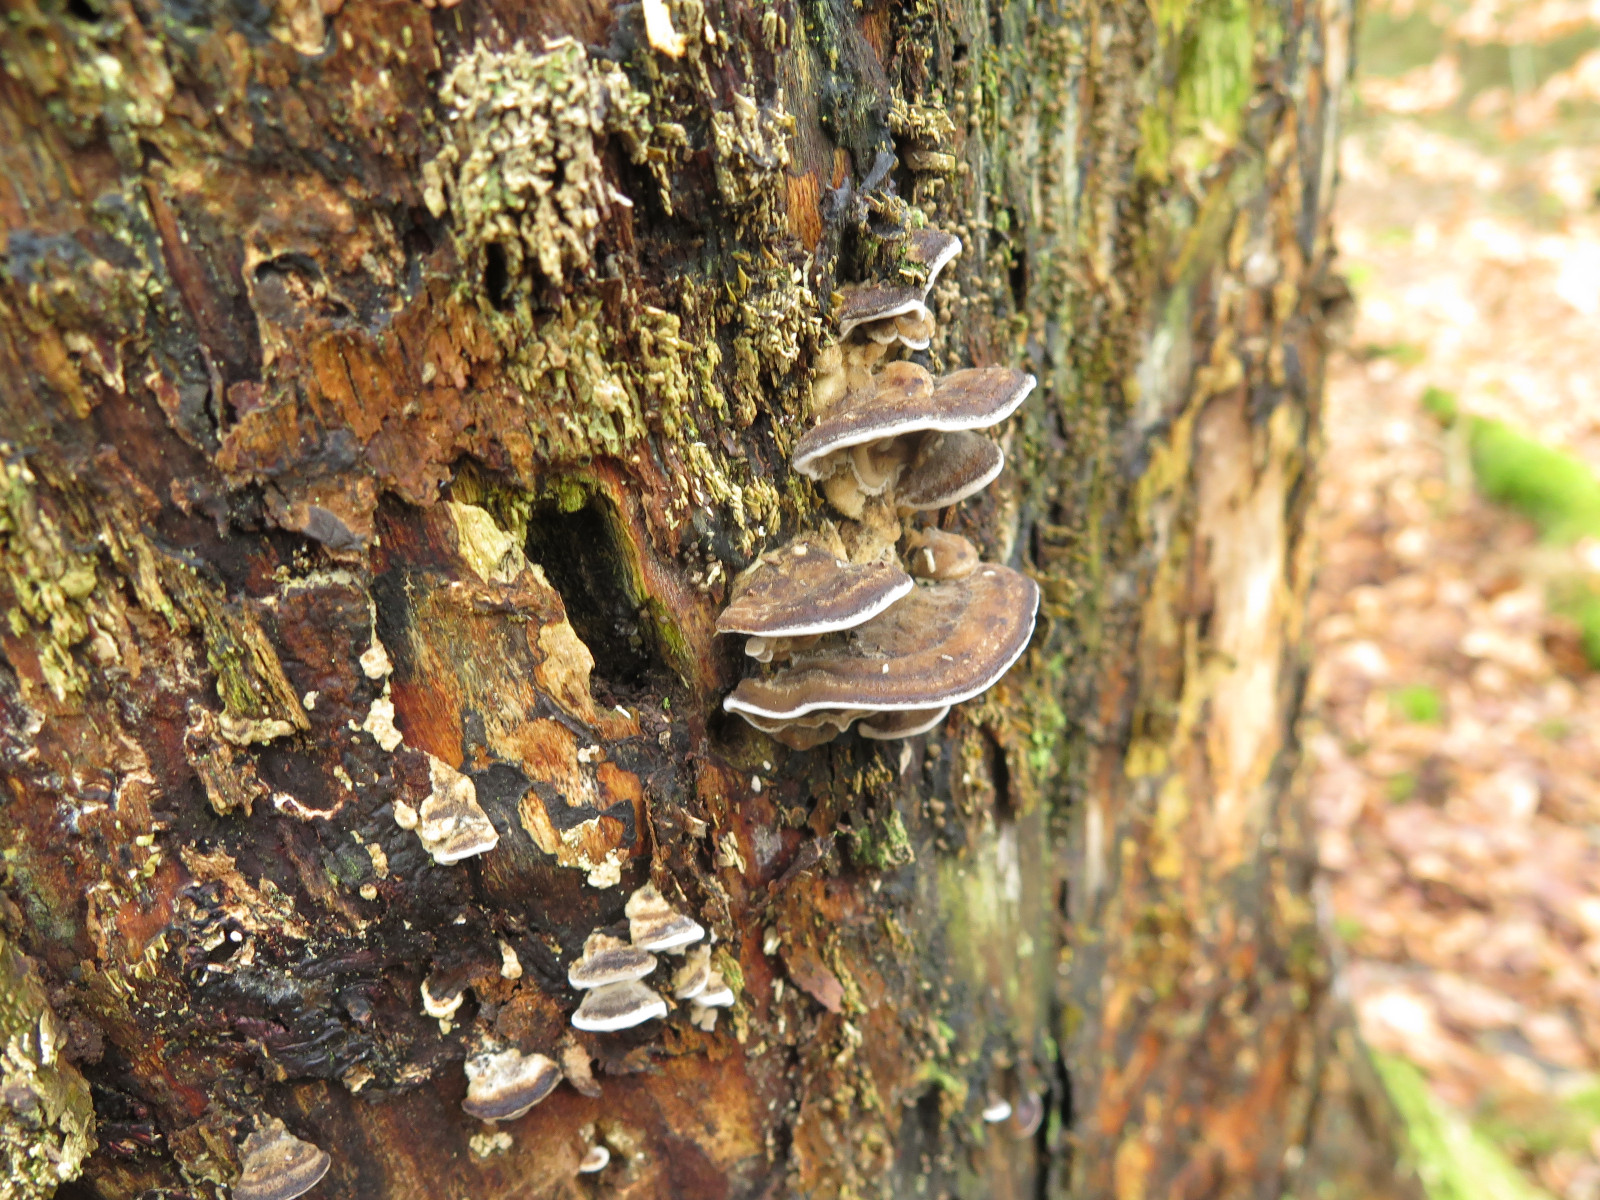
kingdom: Fungi
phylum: Basidiomycota
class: Agaricomycetes
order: Polyporales
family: Phanerochaetaceae
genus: Bjerkandera
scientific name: Bjerkandera adusta
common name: sveden sodporesvamp
